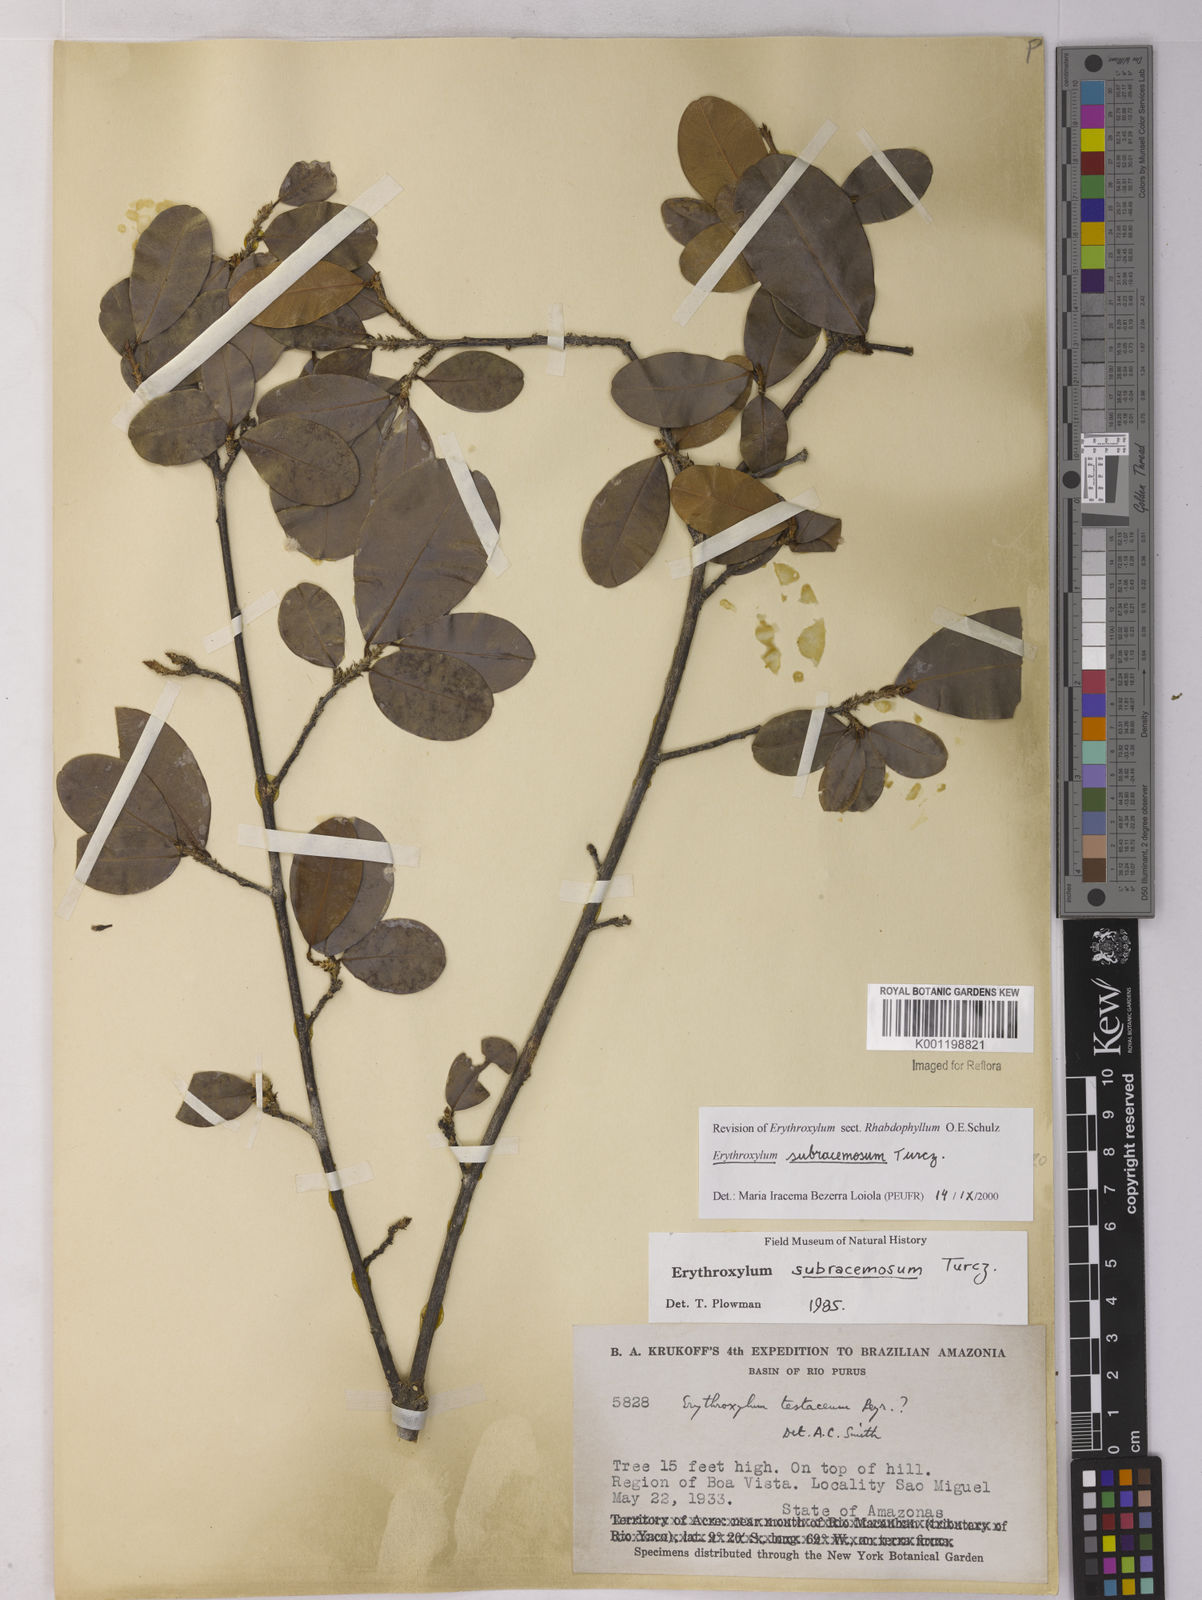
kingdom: Plantae
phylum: Tracheophyta
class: Magnoliopsida
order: Malpighiales
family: Erythroxylaceae
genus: Erythroxylum
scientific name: Erythroxylum subracemosum
